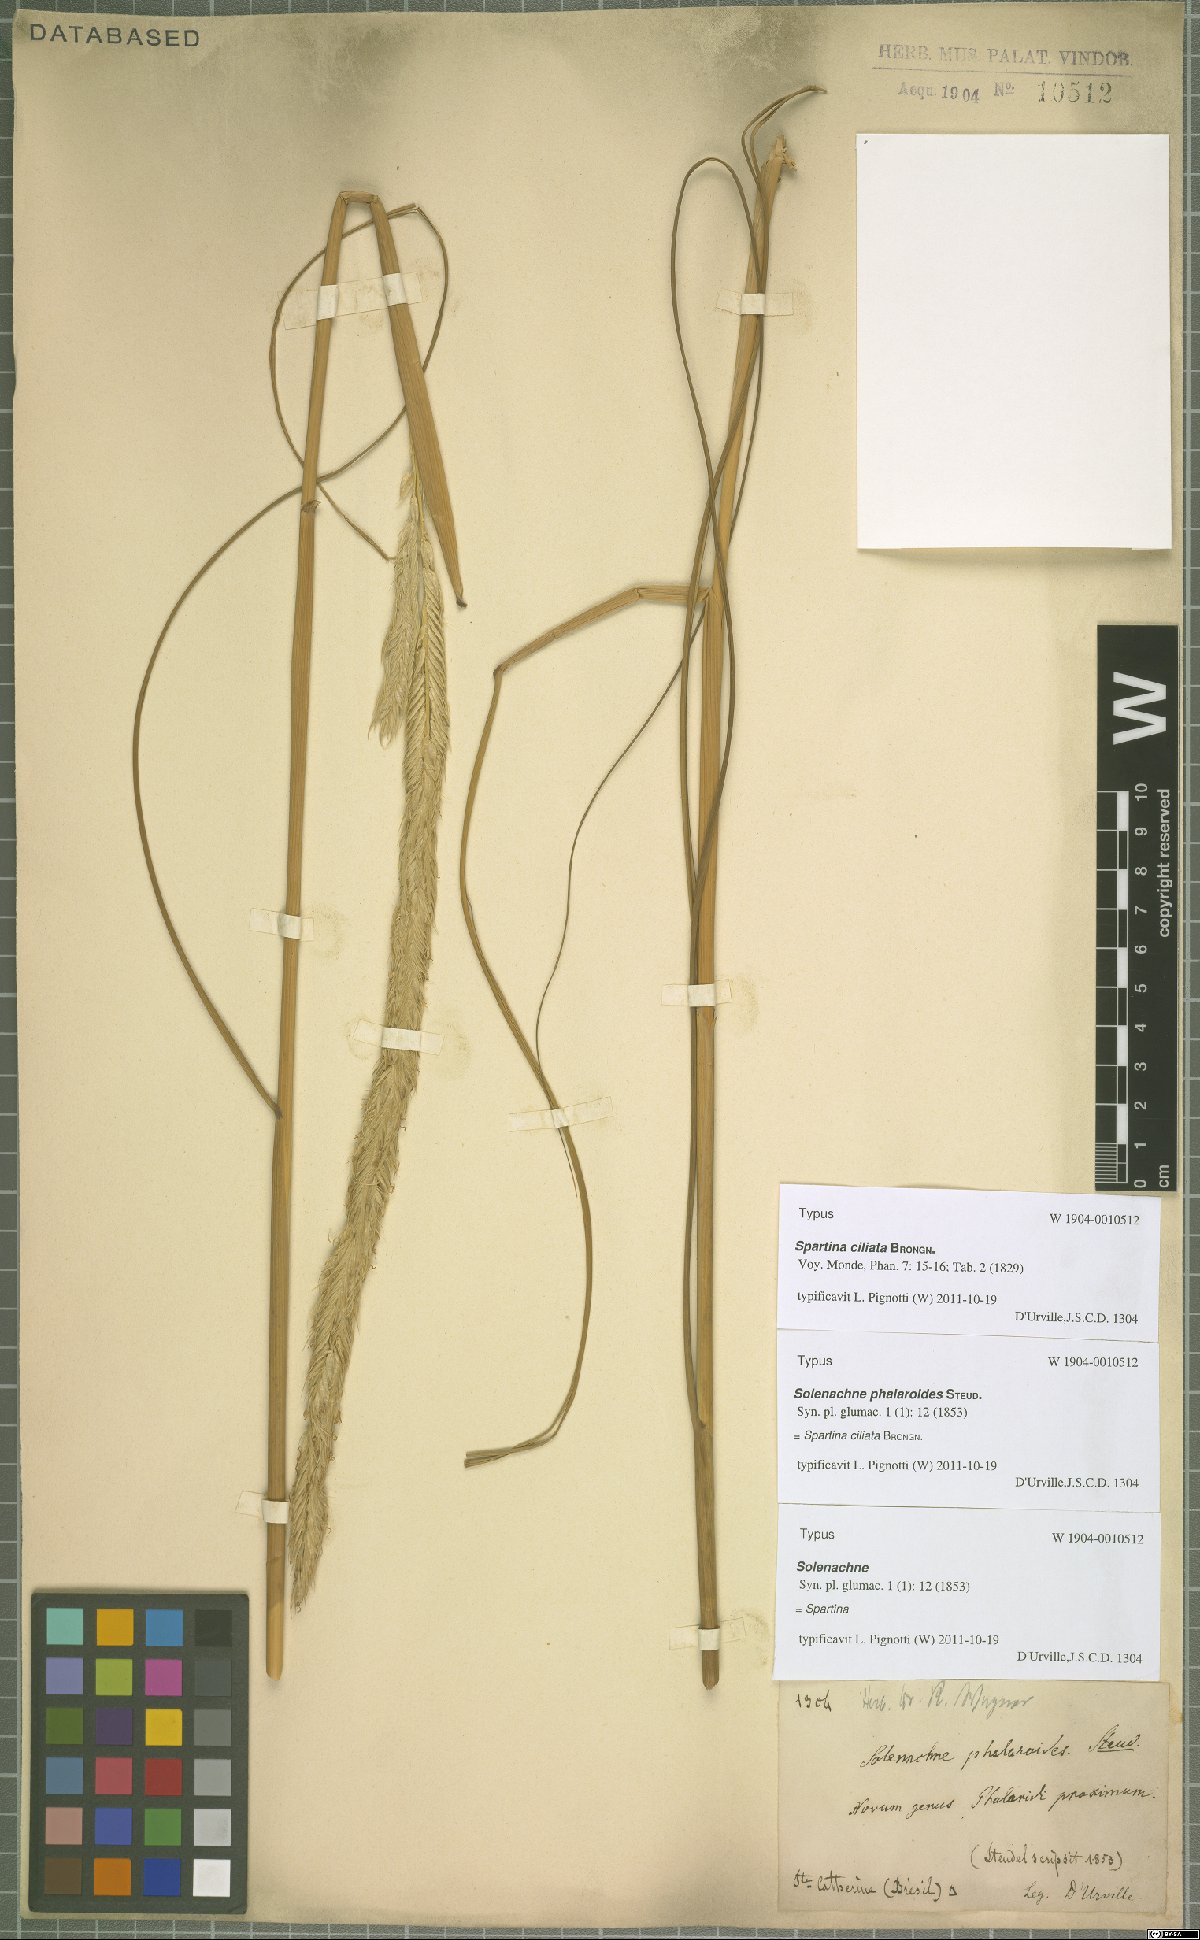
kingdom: Plantae
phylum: Tracheophyta
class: Liliopsida
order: Poales
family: Poaceae
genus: Sporobolus
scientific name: Sporobolus coarctatus
